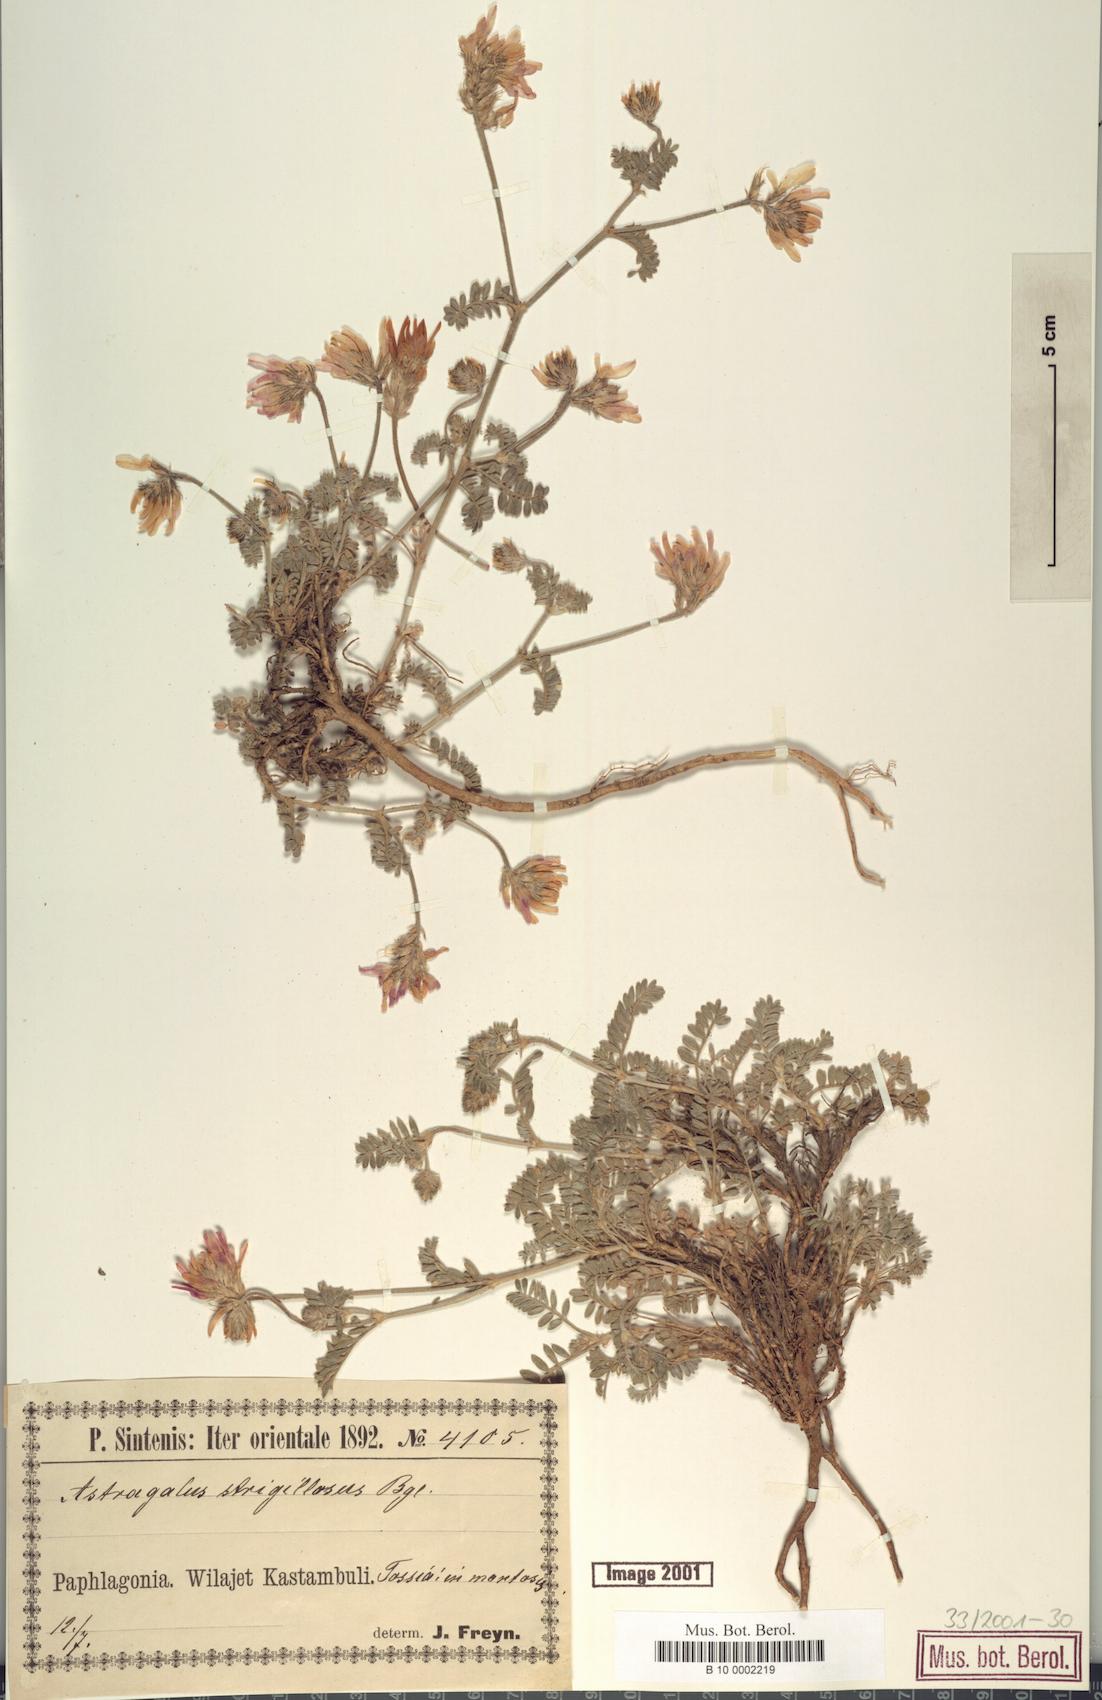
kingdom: Plantae
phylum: Tracheophyta
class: Magnoliopsida
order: Fabales
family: Fabaceae
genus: Astragalus
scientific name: Astragalus strigillosus
